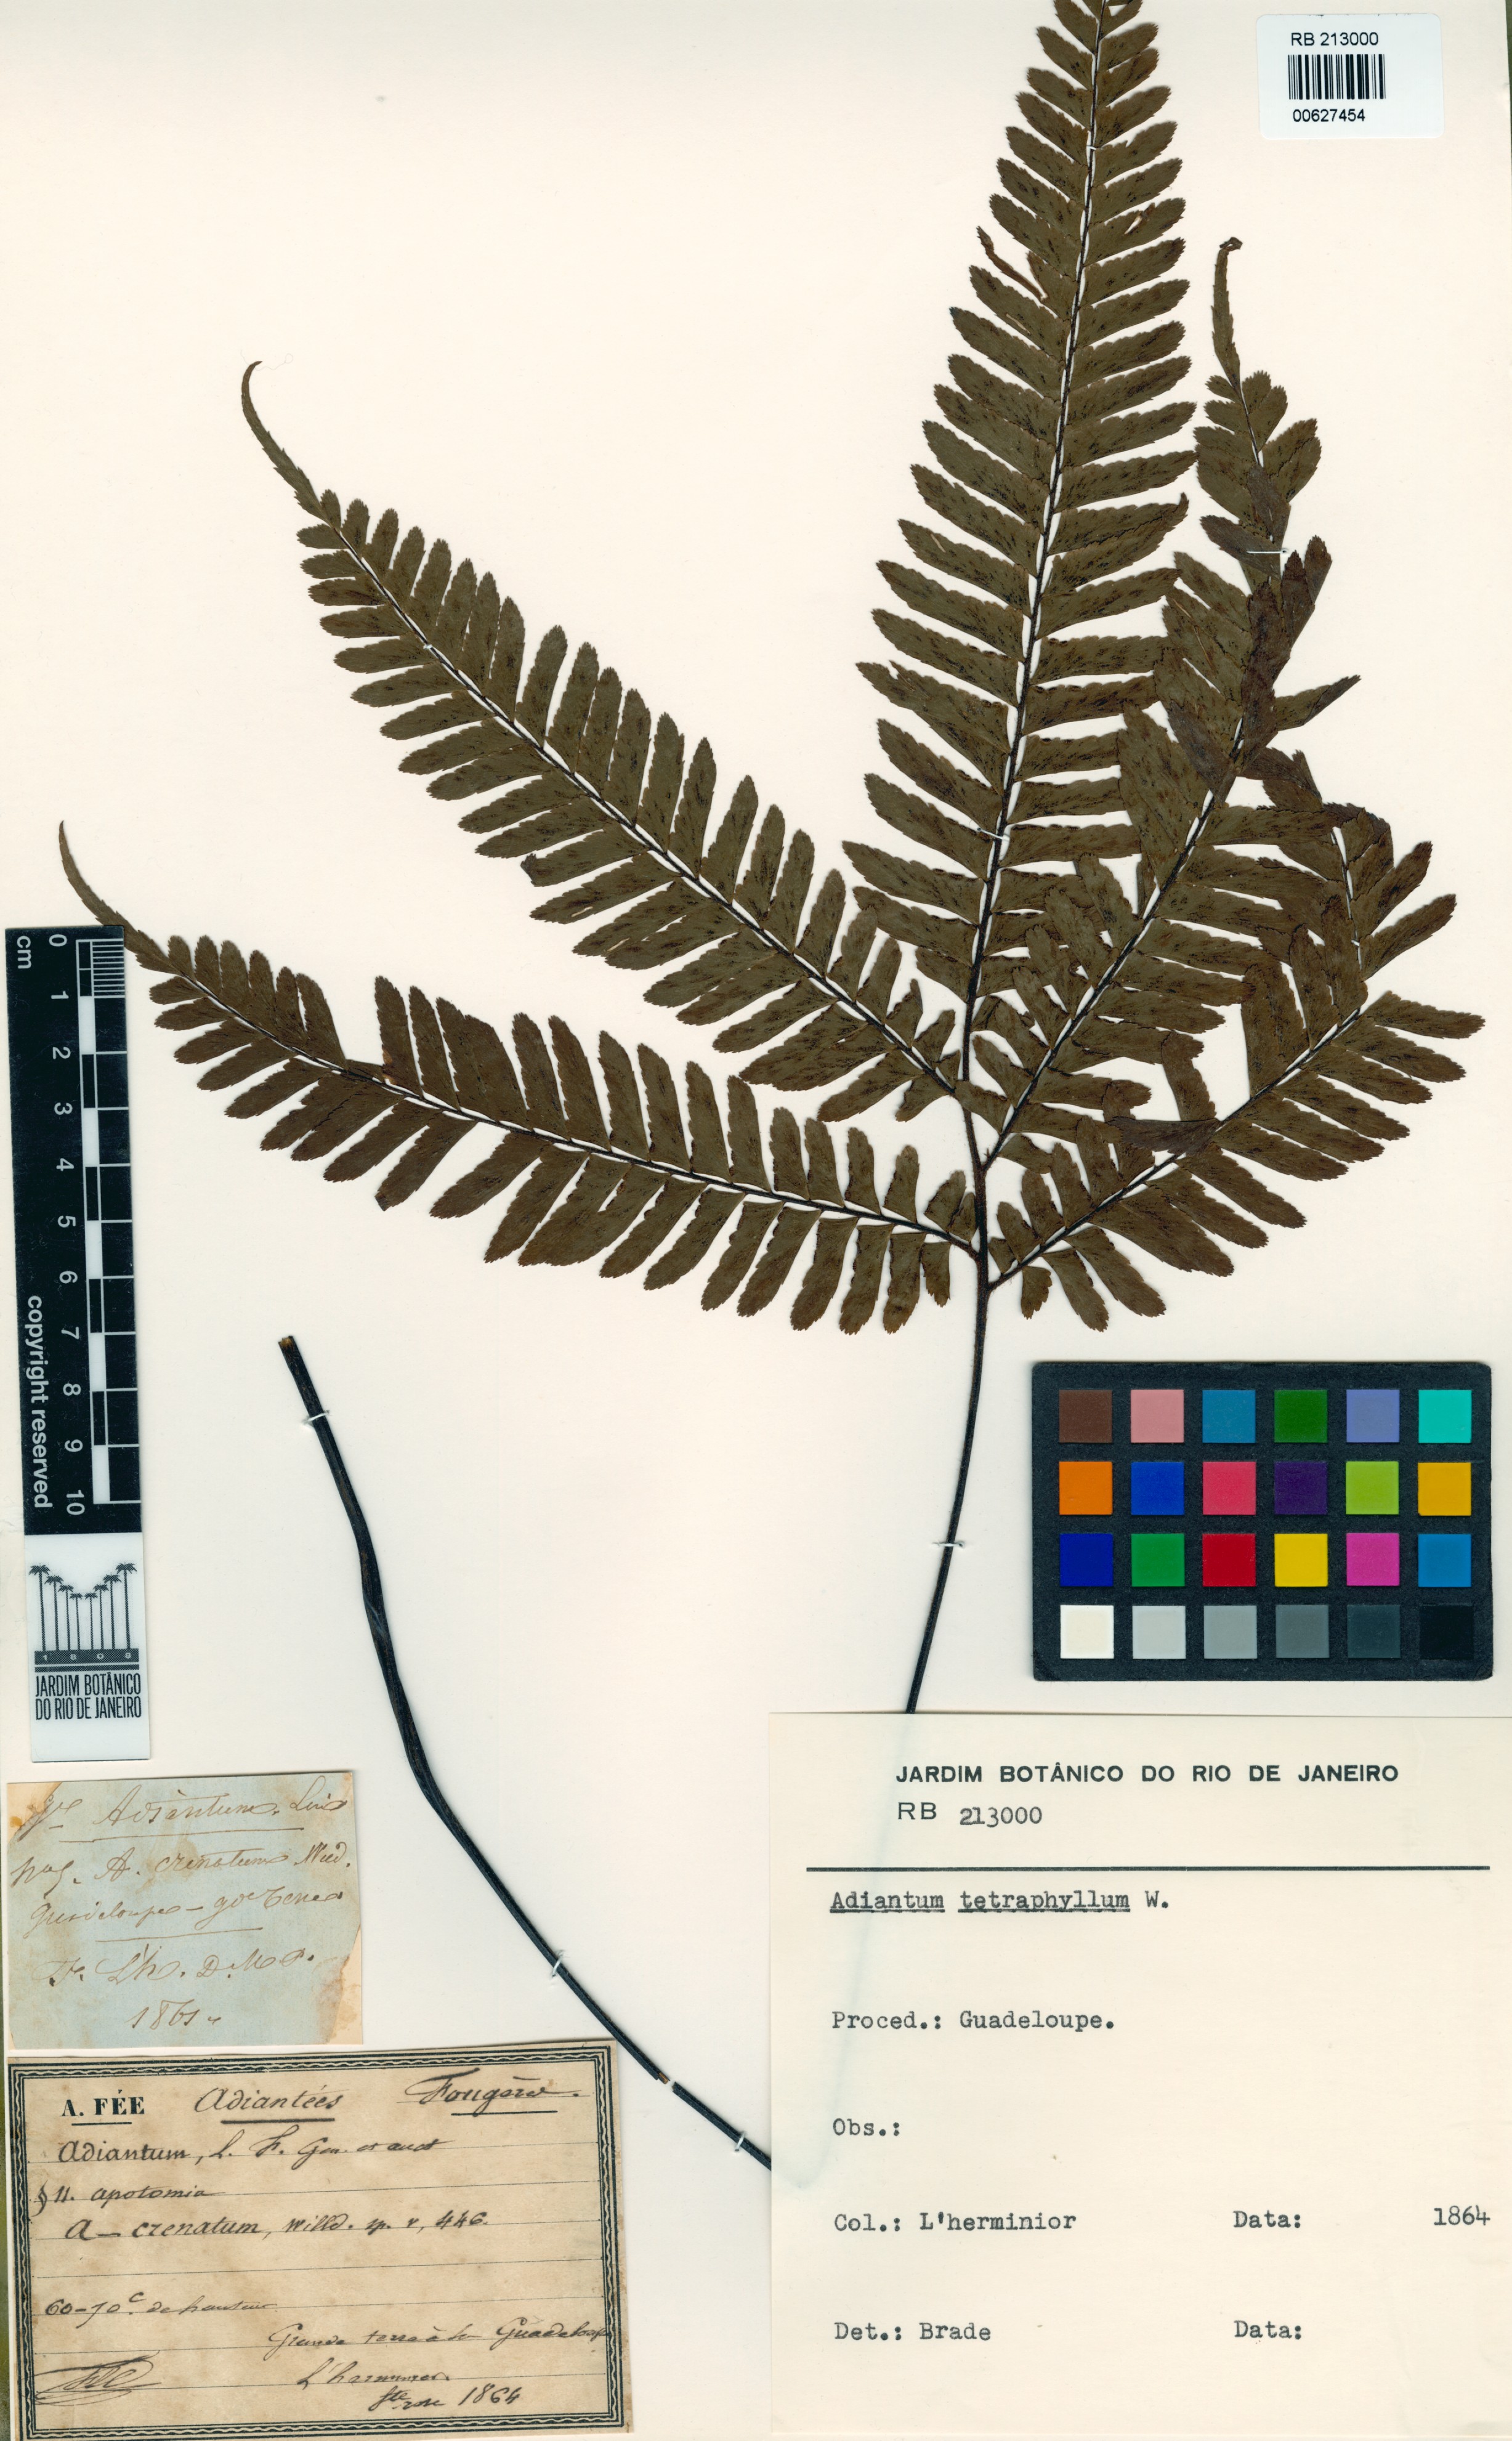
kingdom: Plantae
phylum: Tracheophyta
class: Polypodiopsida
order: Polypodiales
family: Pteridaceae
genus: Adiantum
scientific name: Adiantum tetraphyllum
